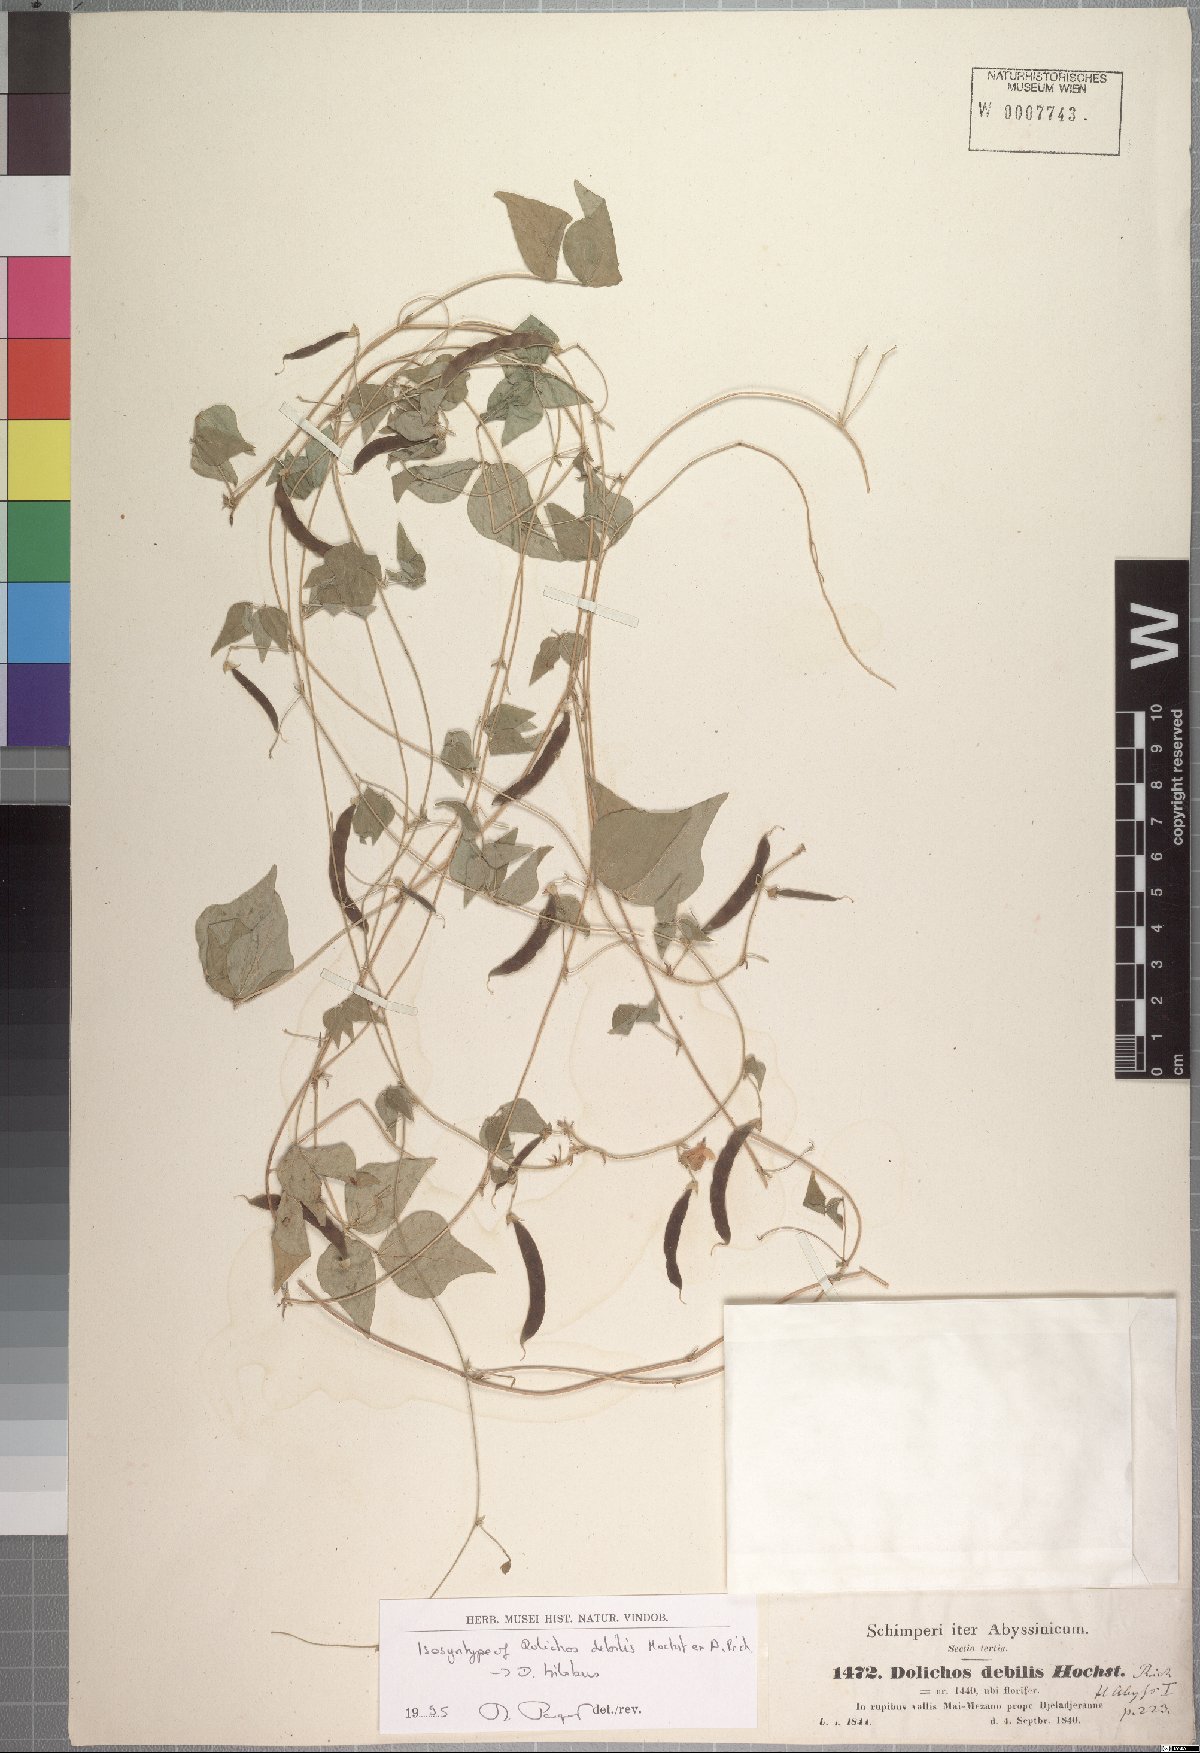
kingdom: Plantae
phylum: Tracheophyta
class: Magnoliopsida
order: Fabales
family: Fabaceae
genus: Dolichos
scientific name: Dolichos trilobus
